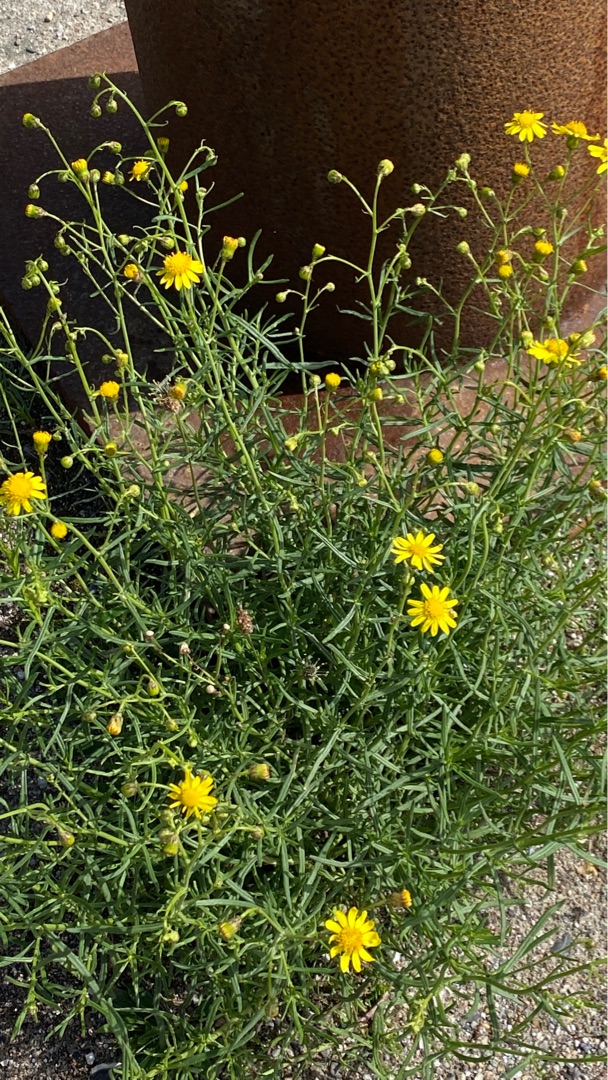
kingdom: Plantae
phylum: Tracheophyta
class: Magnoliopsida
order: Asterales
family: Asteraceae
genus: Senecio
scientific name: Senecio inaequidens
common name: Smalbladet brandbæger
